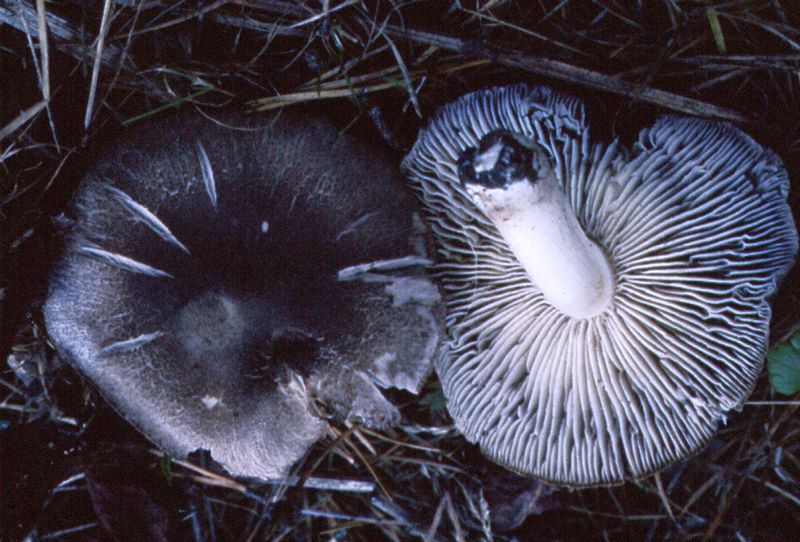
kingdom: Fungi
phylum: Basidiomycota
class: Agaricomycetes
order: Agaricales
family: Tricholomataceae
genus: Tricholoma
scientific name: Tricholoma terreum
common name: jordfarvet ridderhat
